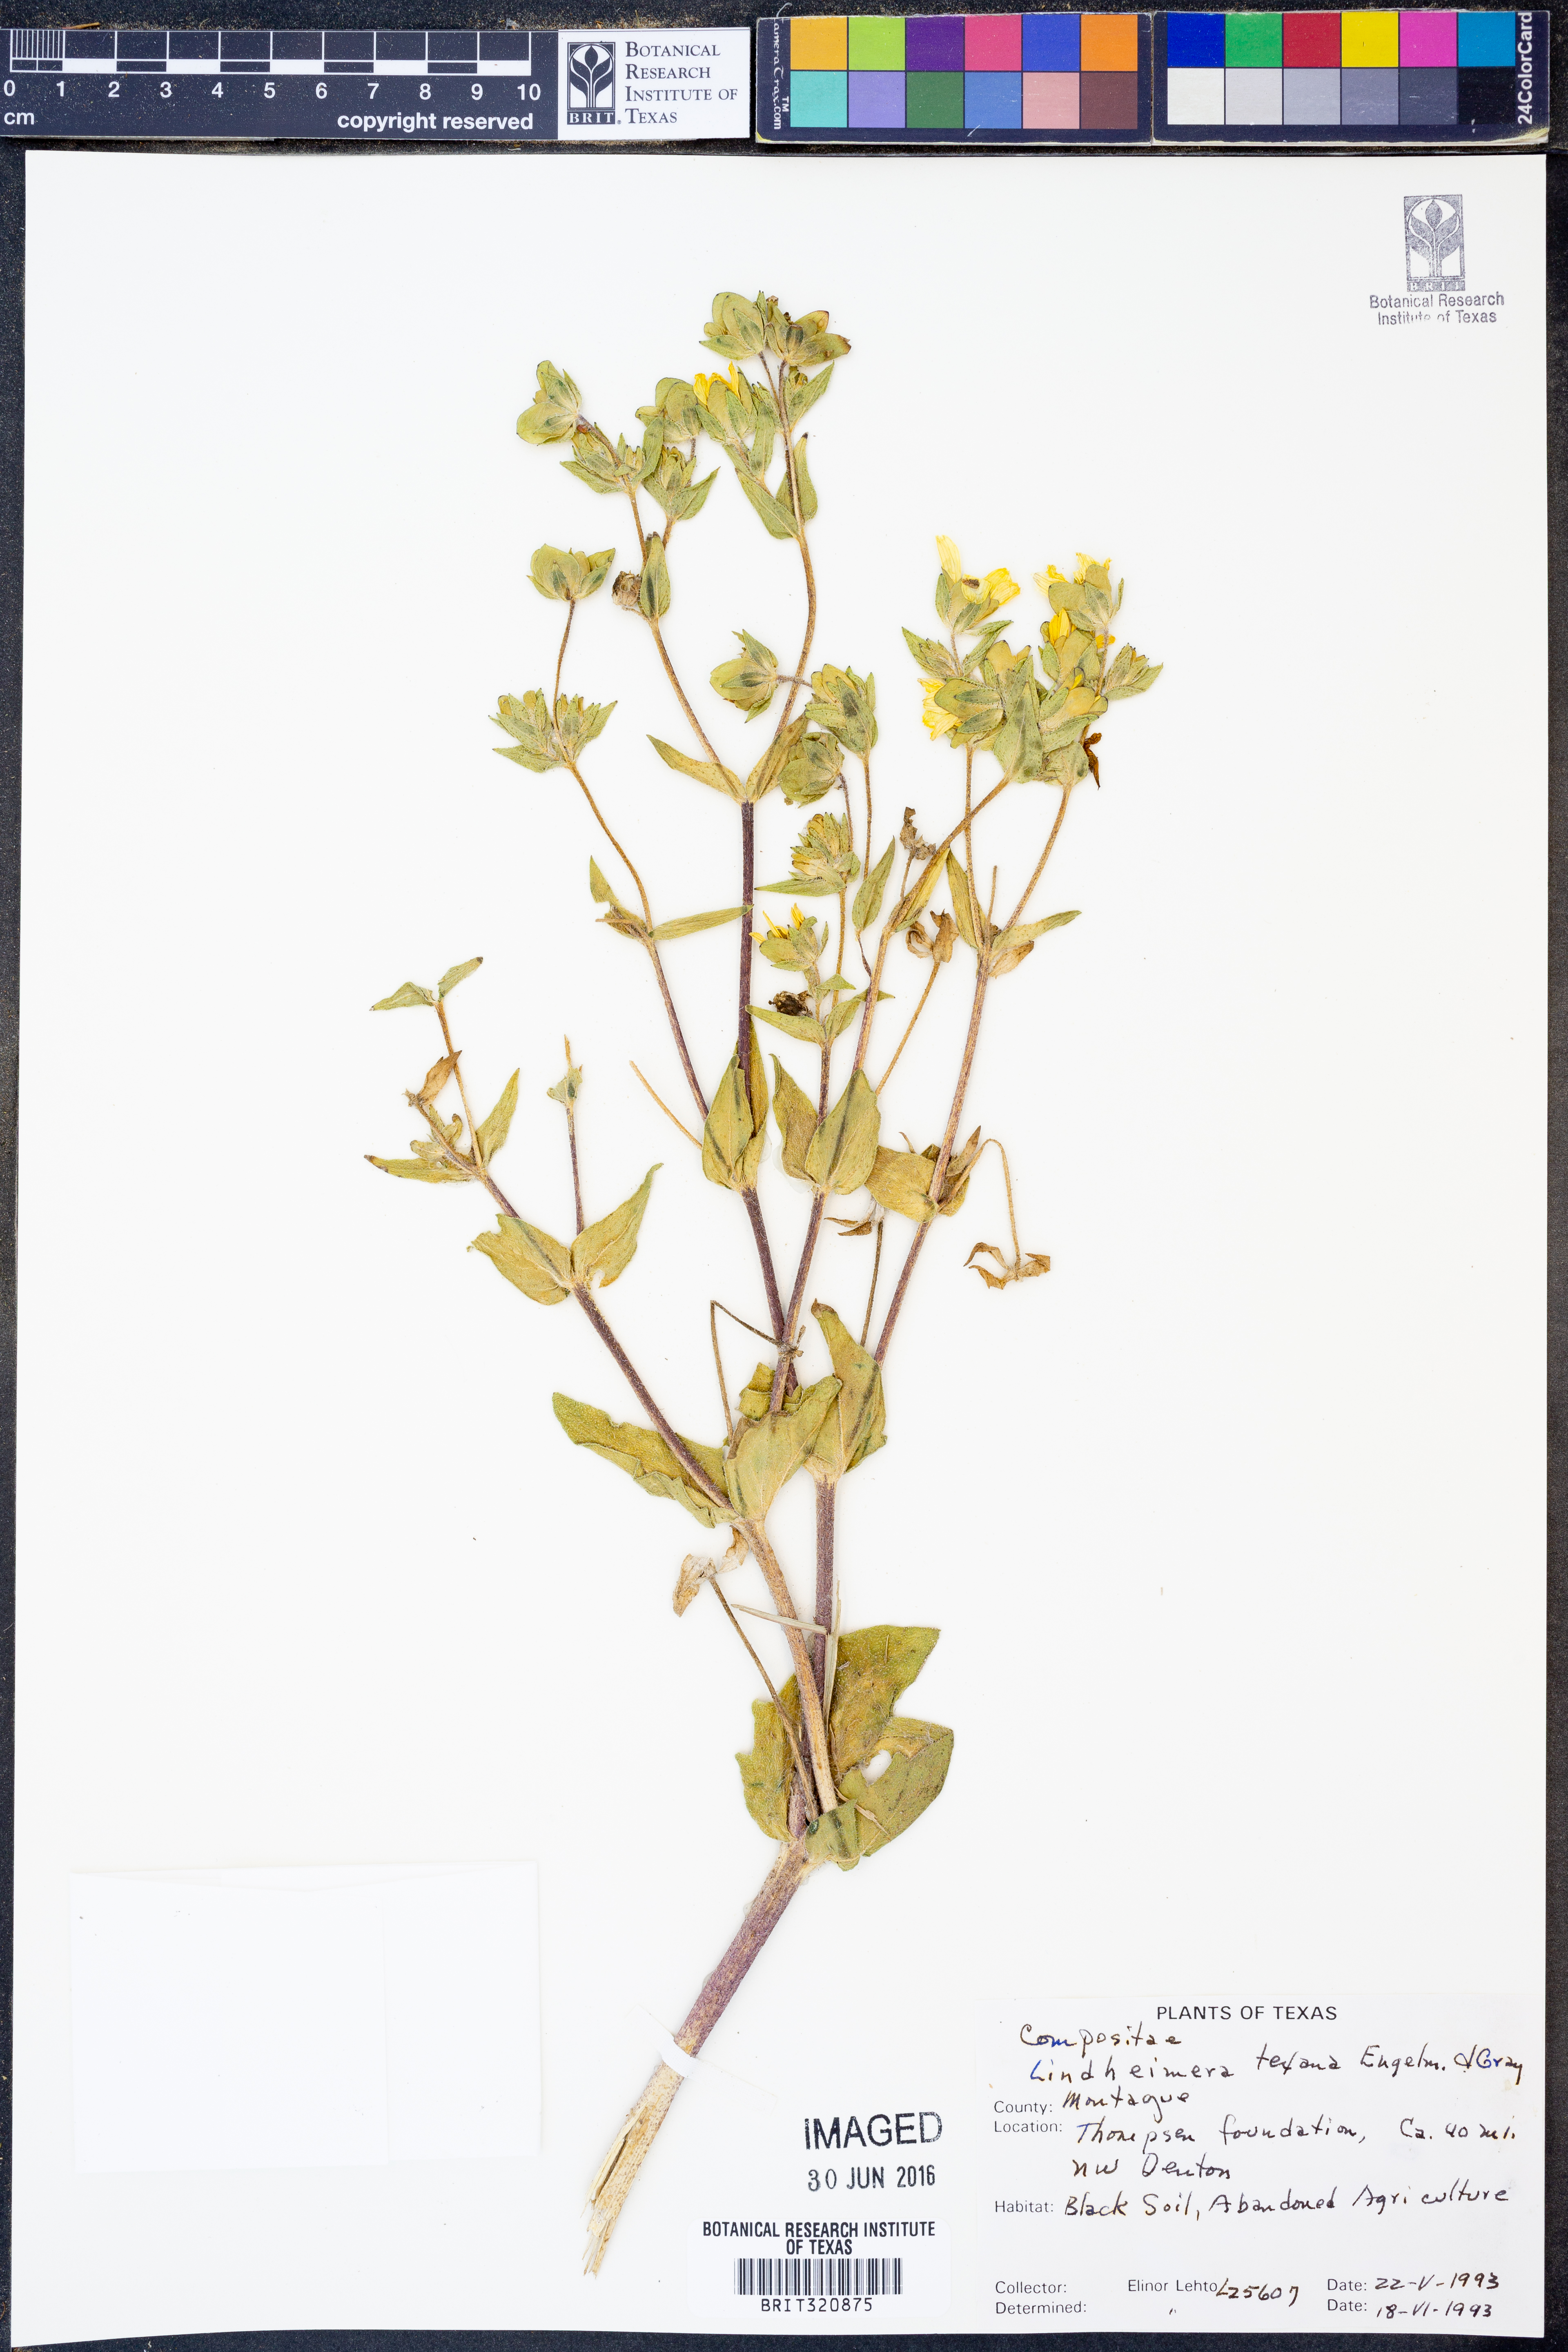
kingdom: Plantae
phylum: Tracheophyta
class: Magnoliopsida
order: Asterales
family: Asteraceae
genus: Lindheimera
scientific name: Lindheimera texana
